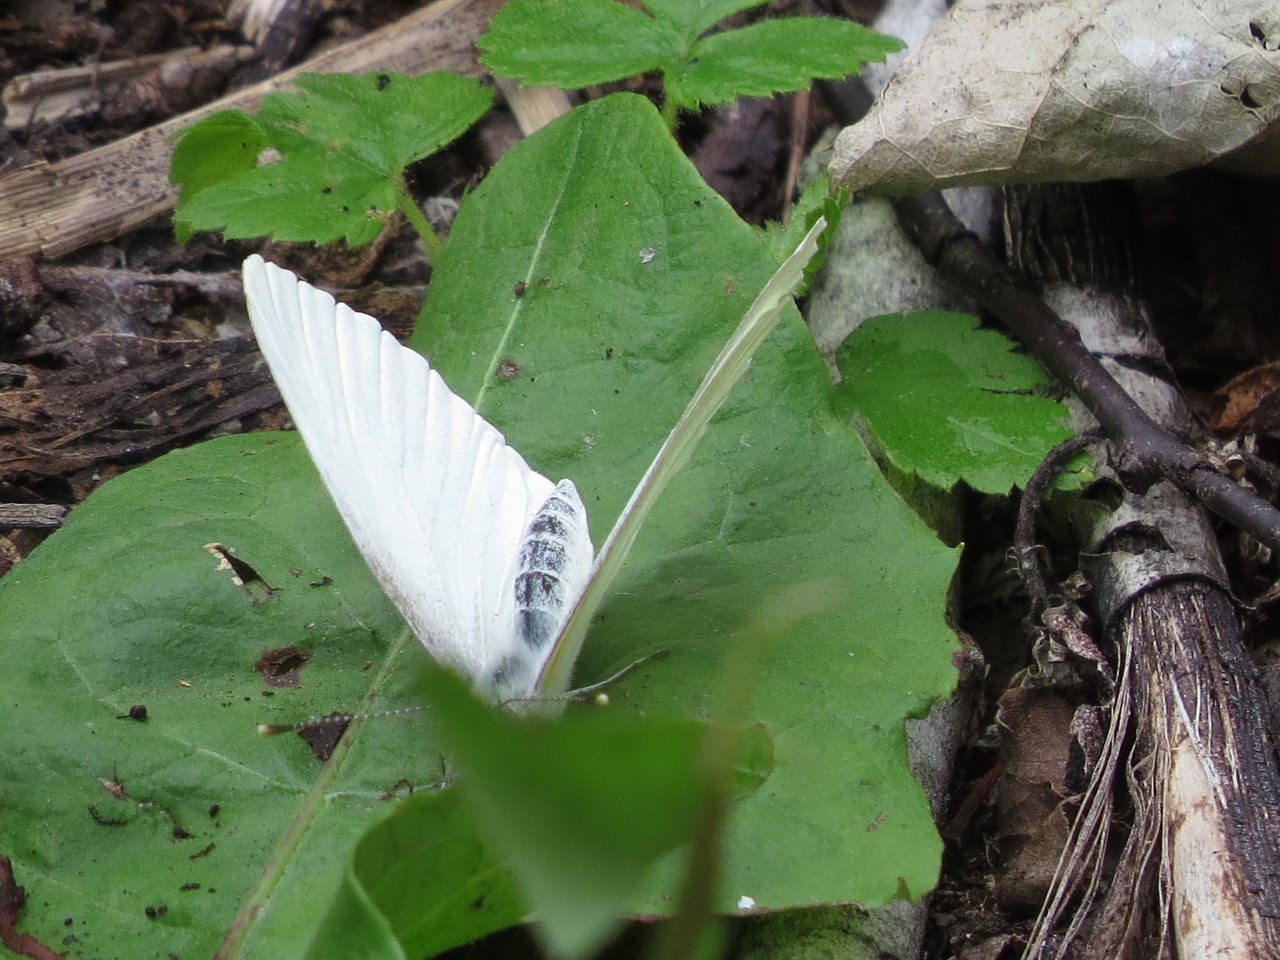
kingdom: Animalia
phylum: Arthropoda
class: Insecta
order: Lepidoptera
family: Pieridae
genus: Pieris
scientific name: Pieris oleracea
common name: Mustard White
